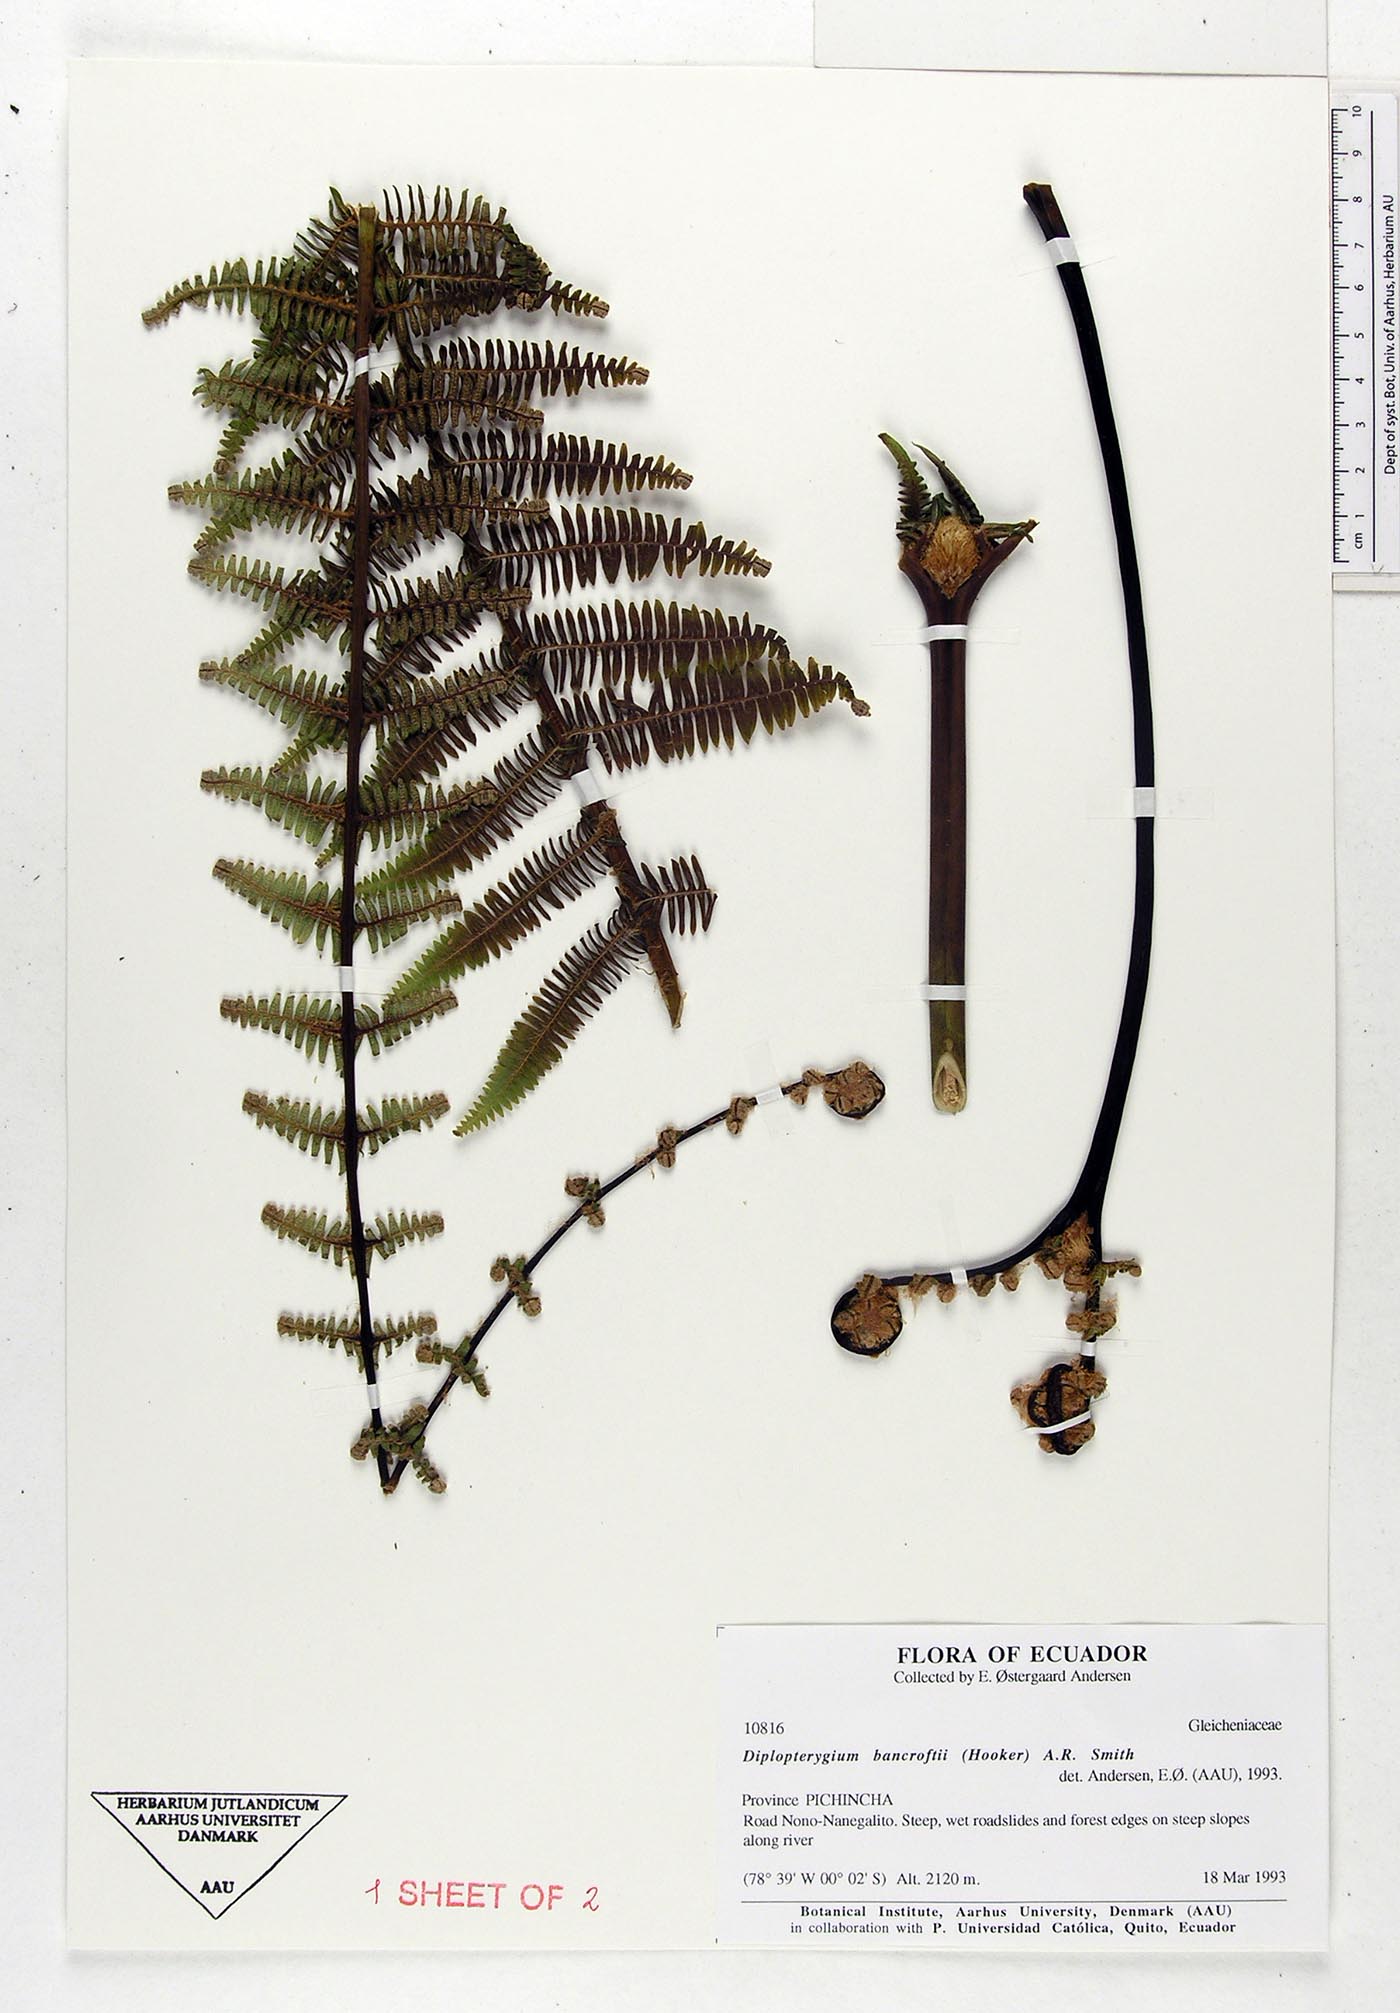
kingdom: Plantae
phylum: Tracheophyta
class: Polypodiopsida
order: Gleicheniales
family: Gleicheniaceae
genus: Diplopterygium
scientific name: Diplopterygium bancroftii
